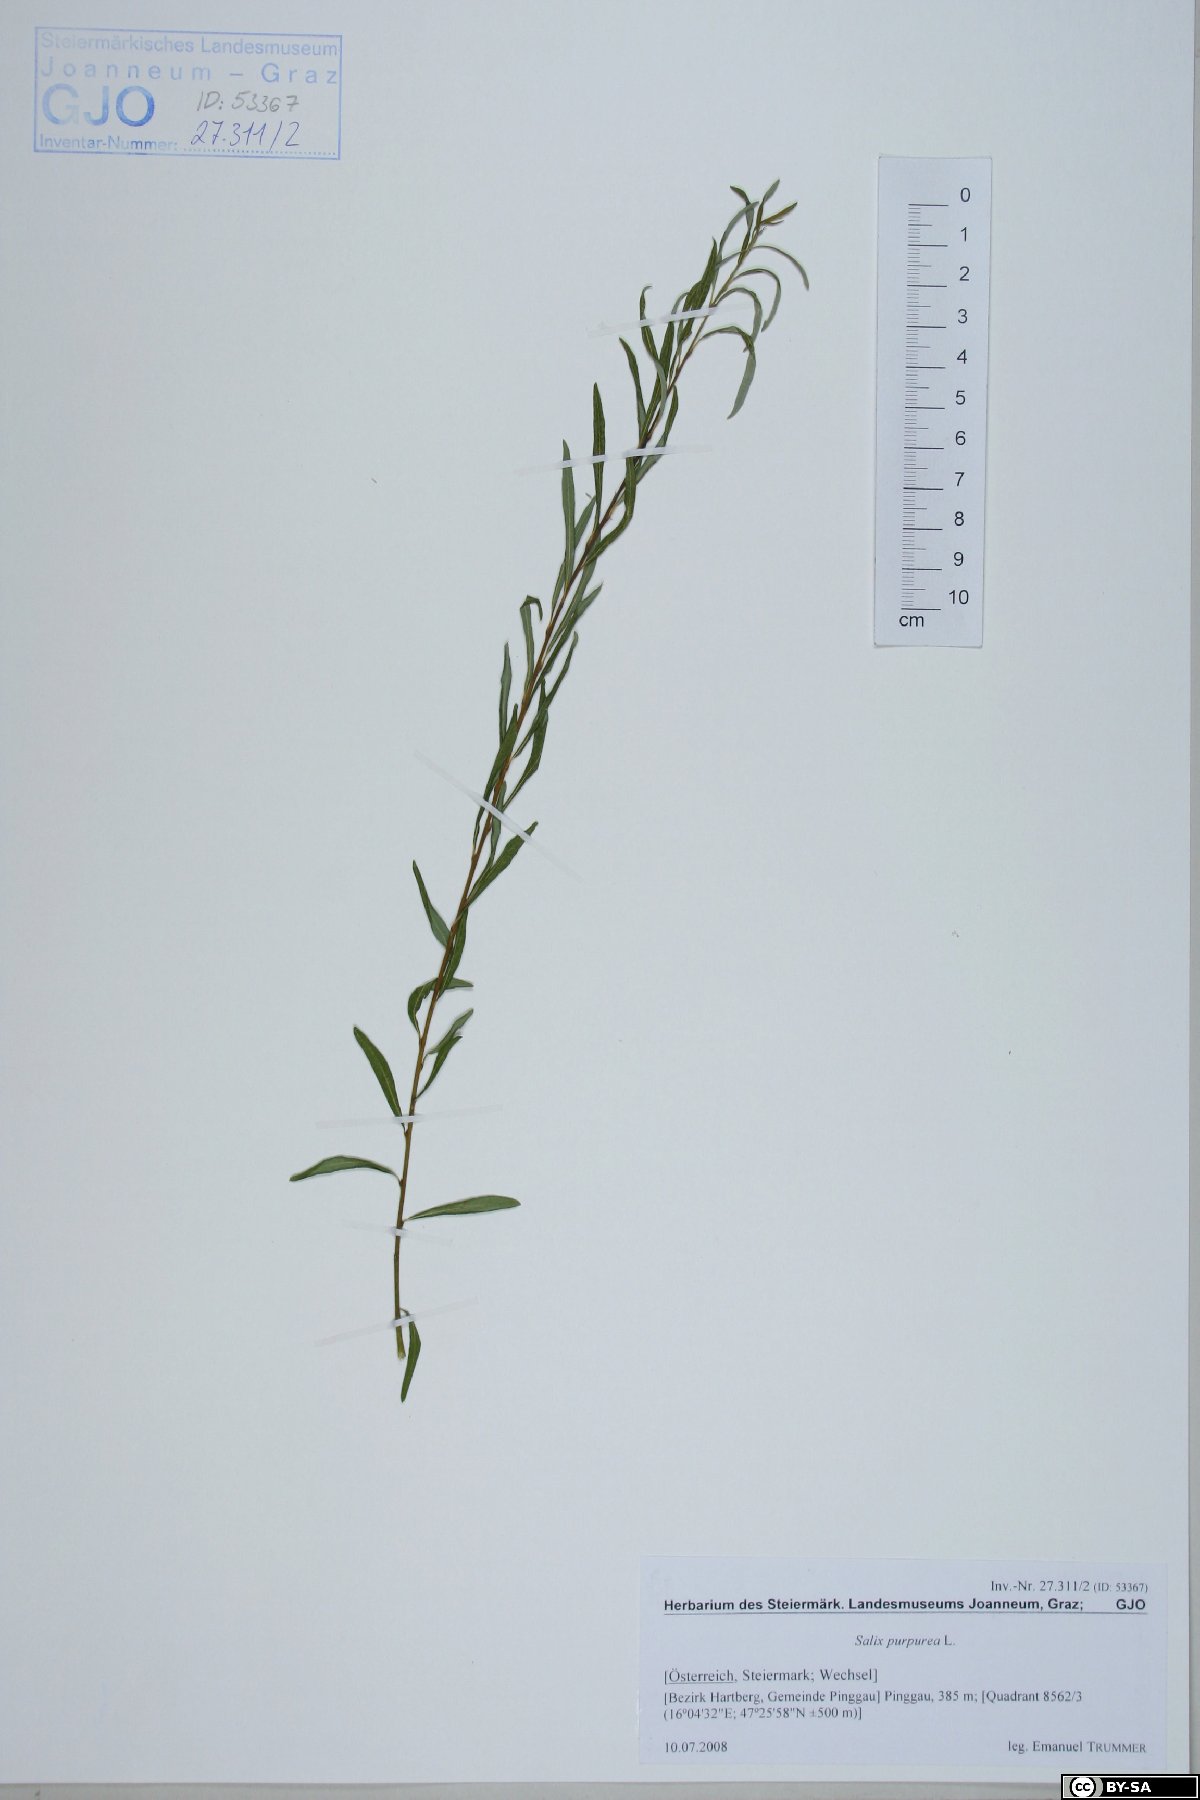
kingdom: Plantae
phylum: Tracheophyta
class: Magnoliopsida
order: Malpighiales
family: Salicaceae
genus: Salix
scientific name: Salix purpurea
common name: Purple willow
